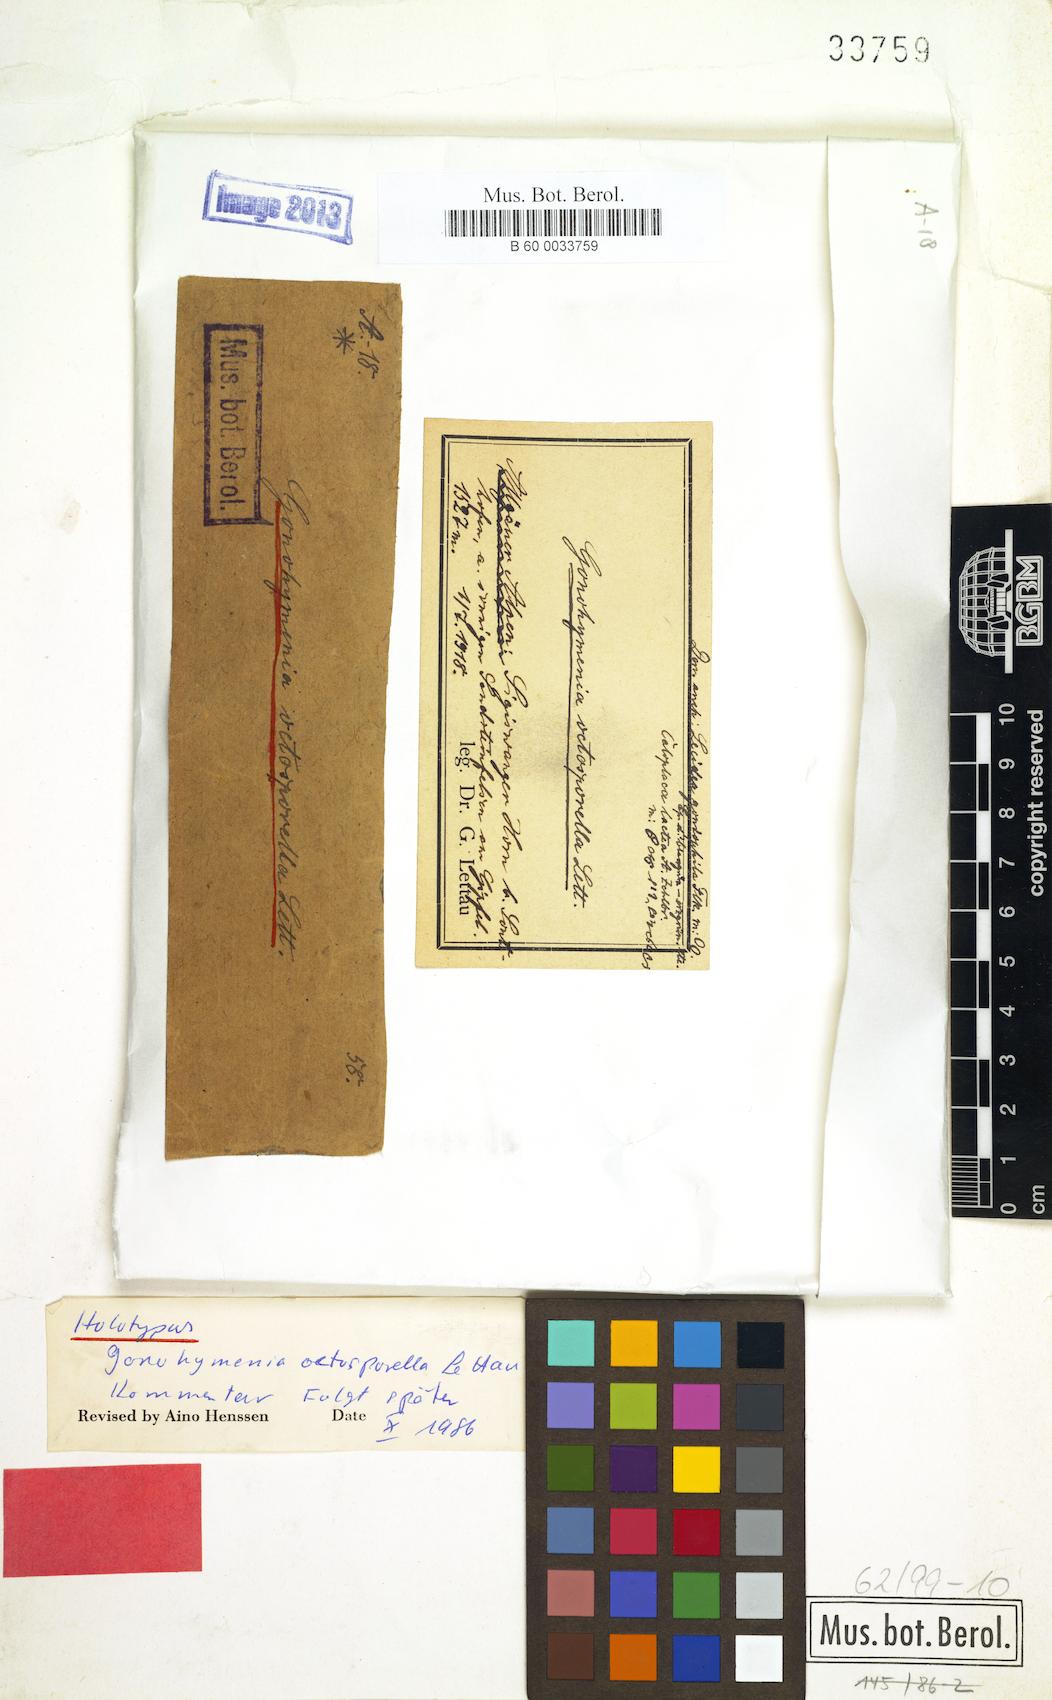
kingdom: Fungi
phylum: Ascomycota
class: Lichinomycetes
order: Lichinales
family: Lichinaceae
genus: Gonohymenia
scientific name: Gonohymenia octosporella
